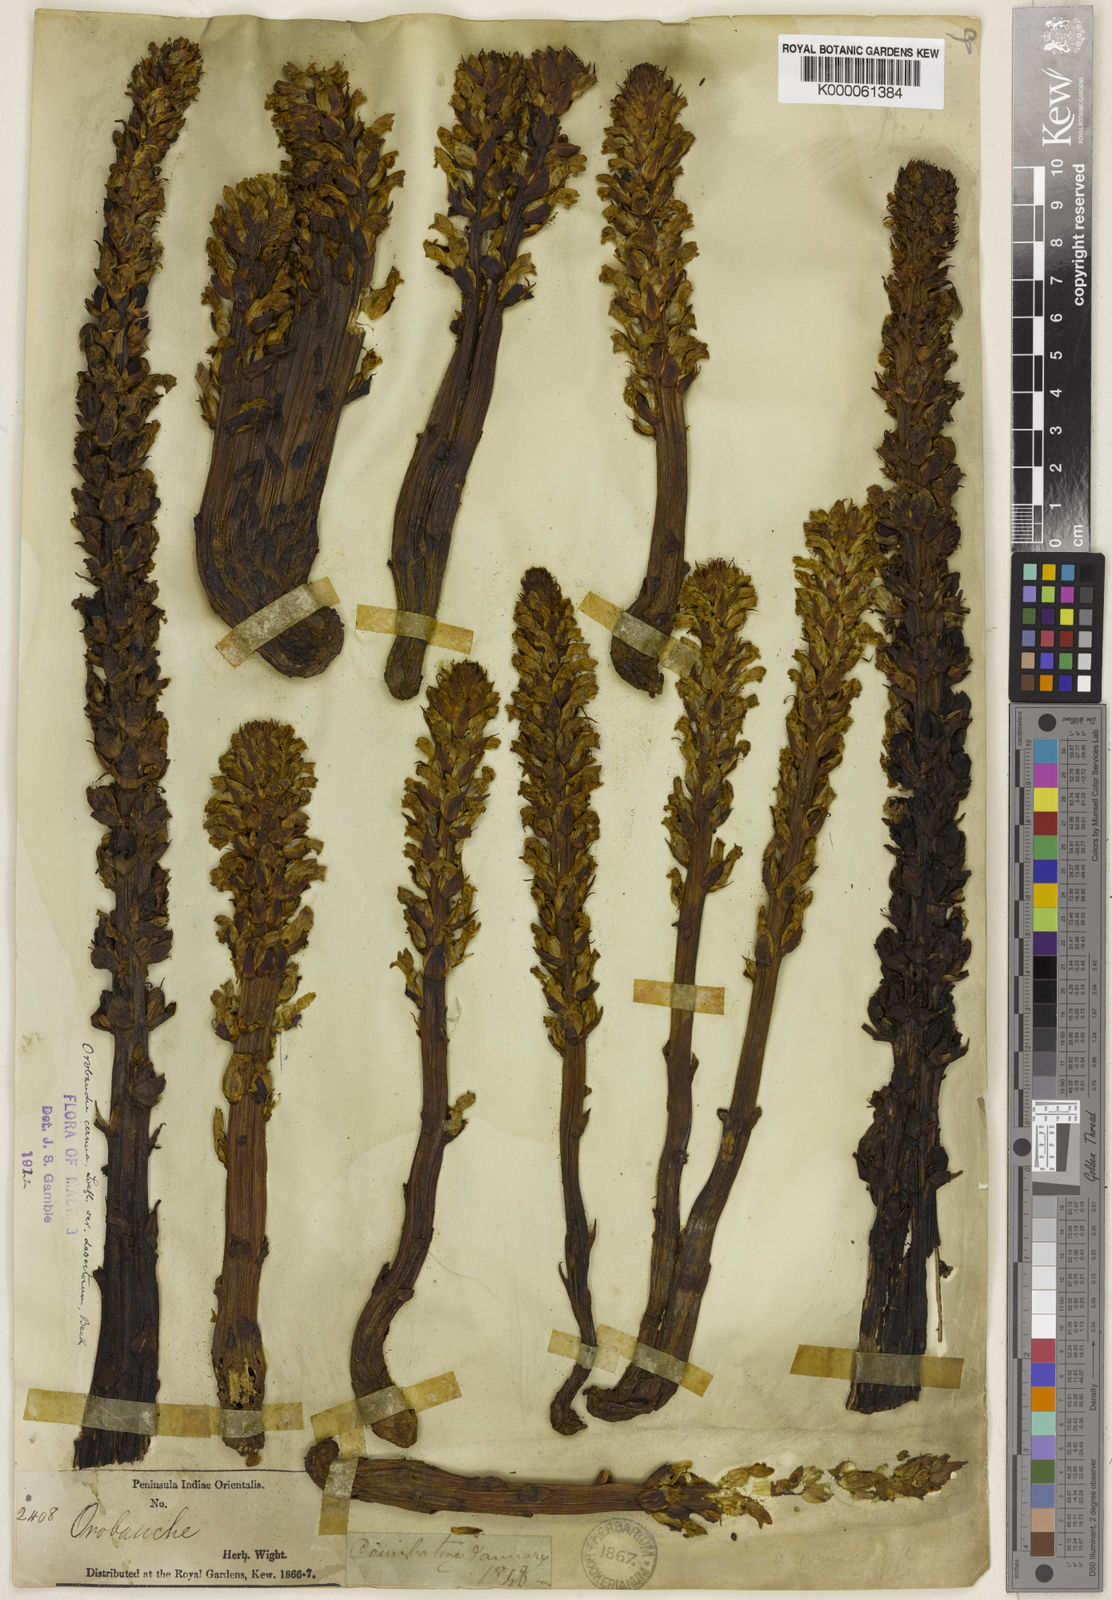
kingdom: Plantae
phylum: Tracheophyta
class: Magnoliopsida
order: Lamiales
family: Orobanchaceae
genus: Orobanche
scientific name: Orobanche cernua
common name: Australian broomrape
